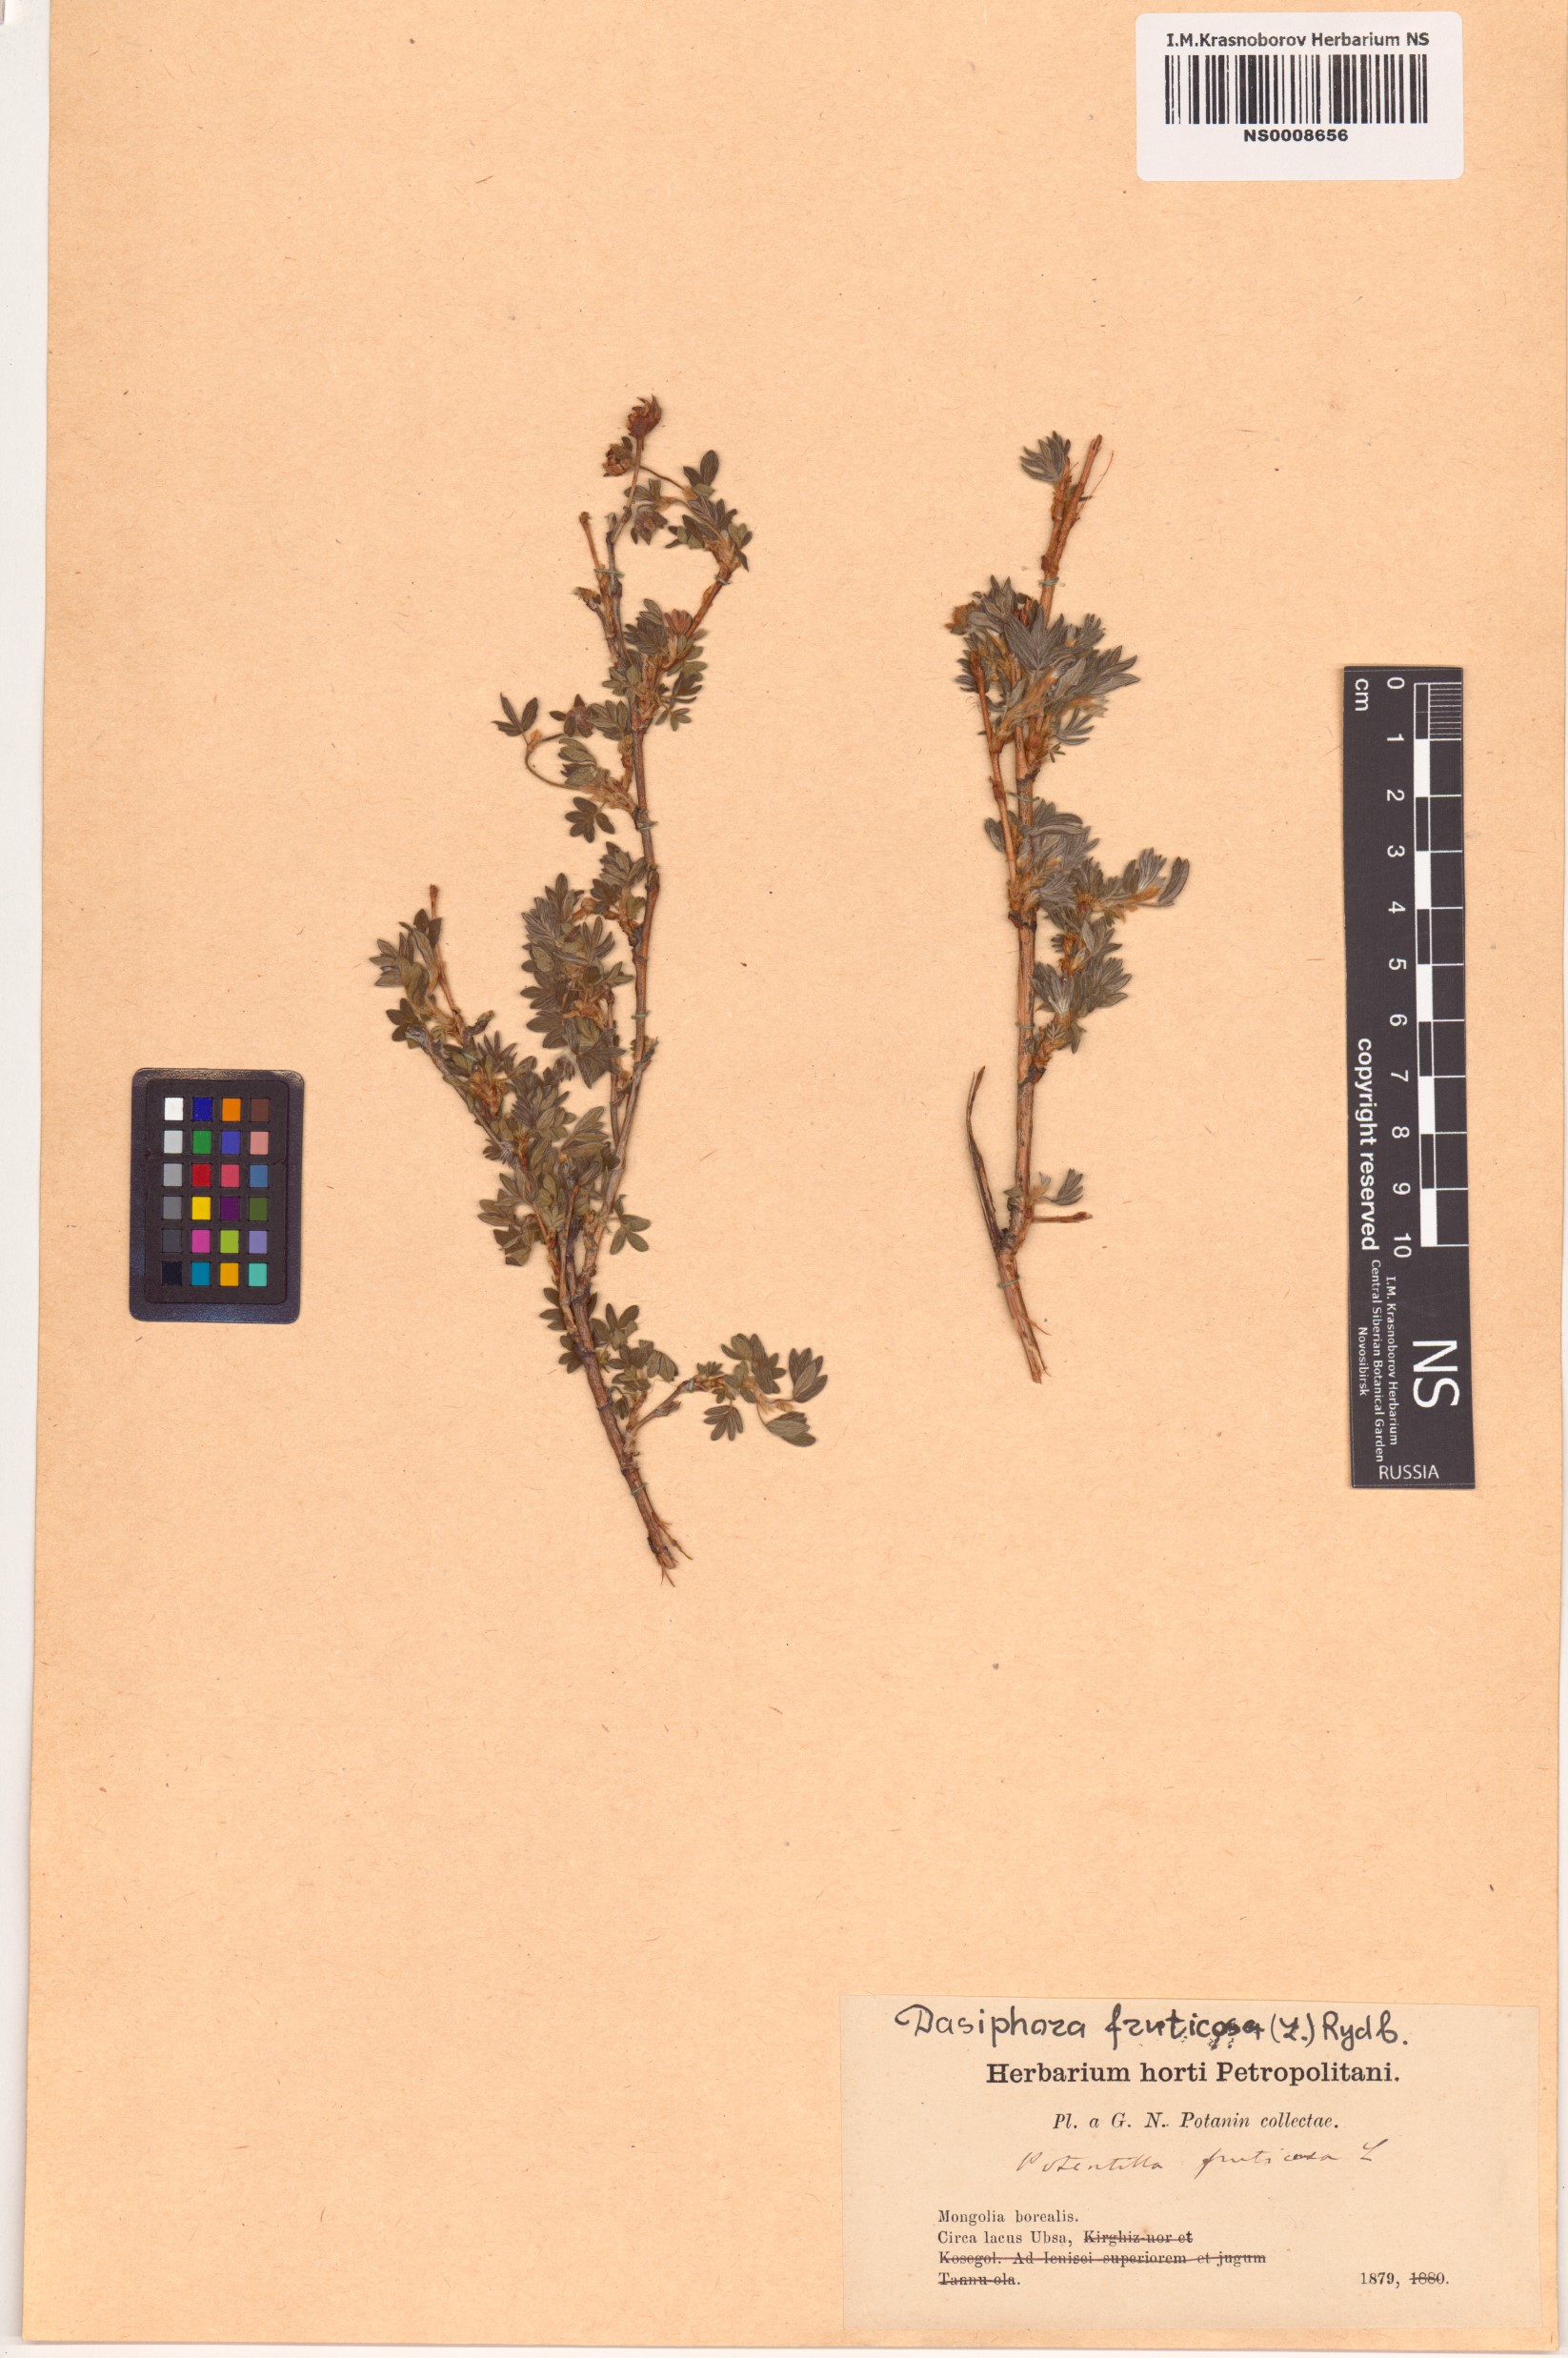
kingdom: Plantae
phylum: Tracheophyta
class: Magnoliopsida
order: Rosales
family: Rosaceae
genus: Dasiphora
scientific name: Dasiphora fruticosa
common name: Shrubby cinquefoil
